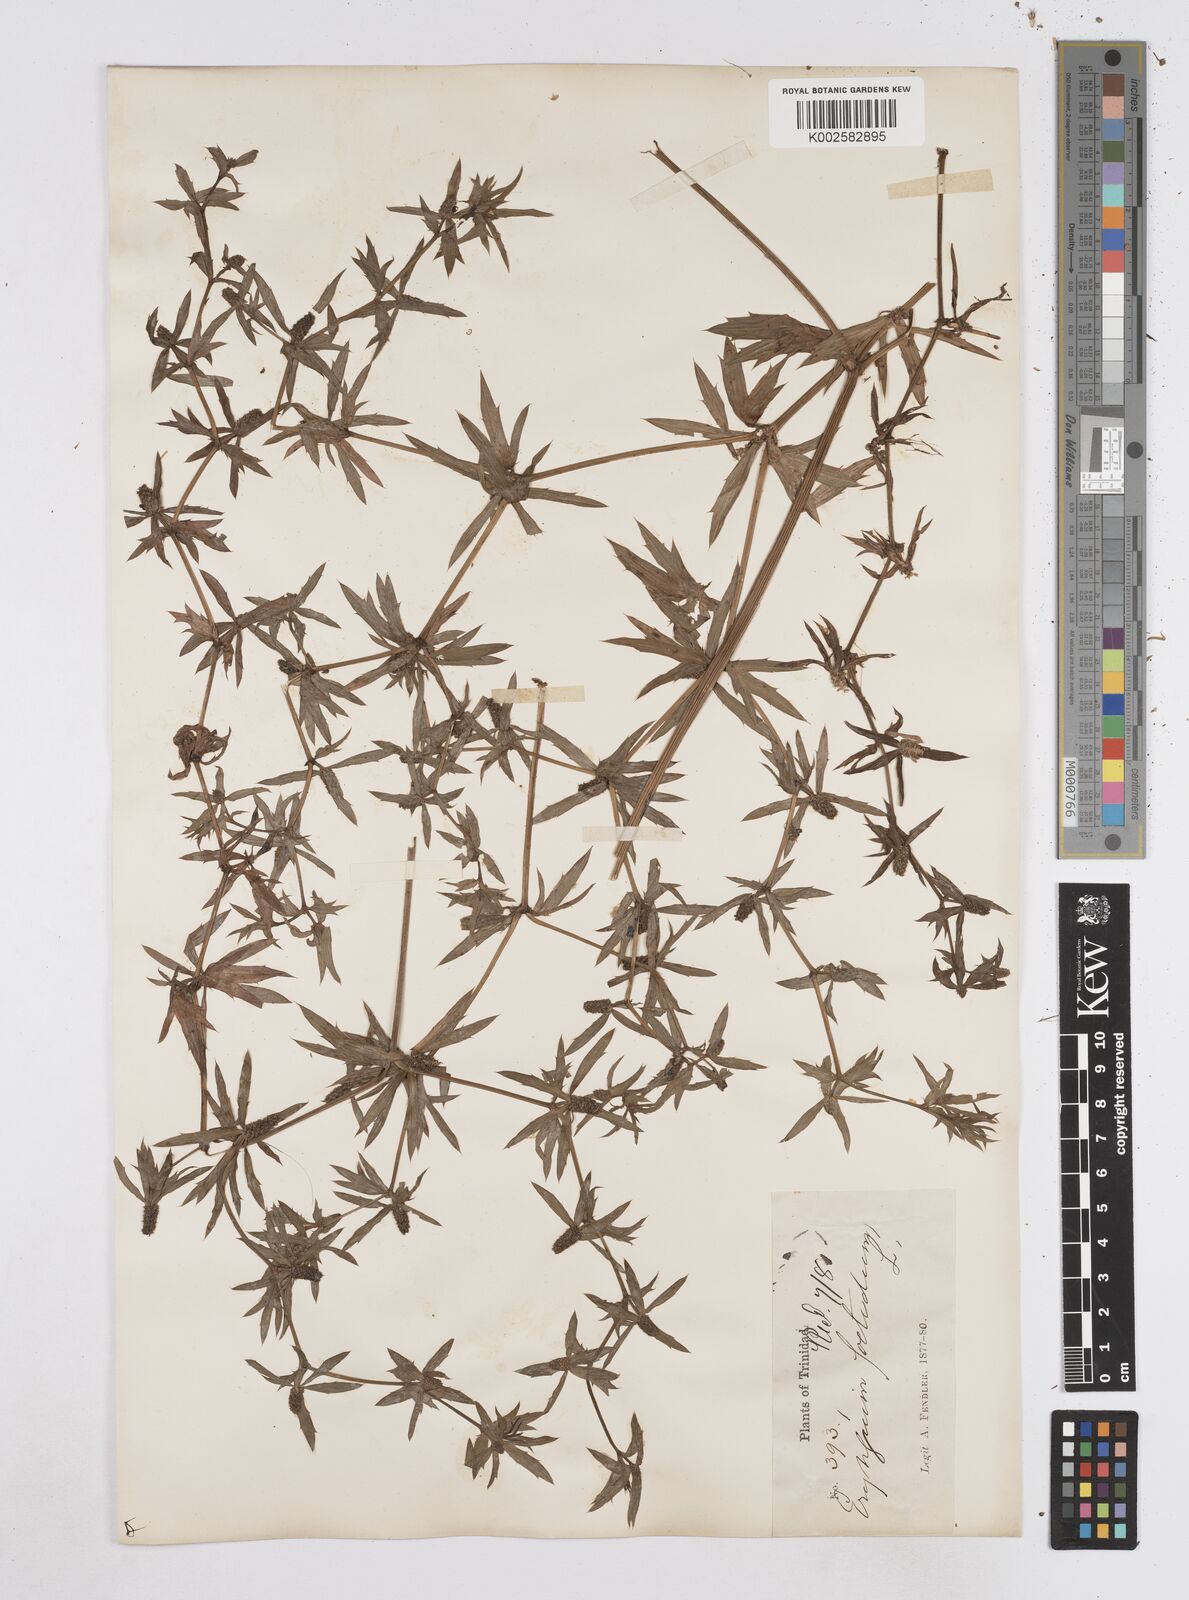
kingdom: Plantae
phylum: Tracheophyta
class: Magnoliopsida
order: Apiales
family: Apiaceae
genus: Eryngium
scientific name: Eryngium foetidum
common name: Fitweed
